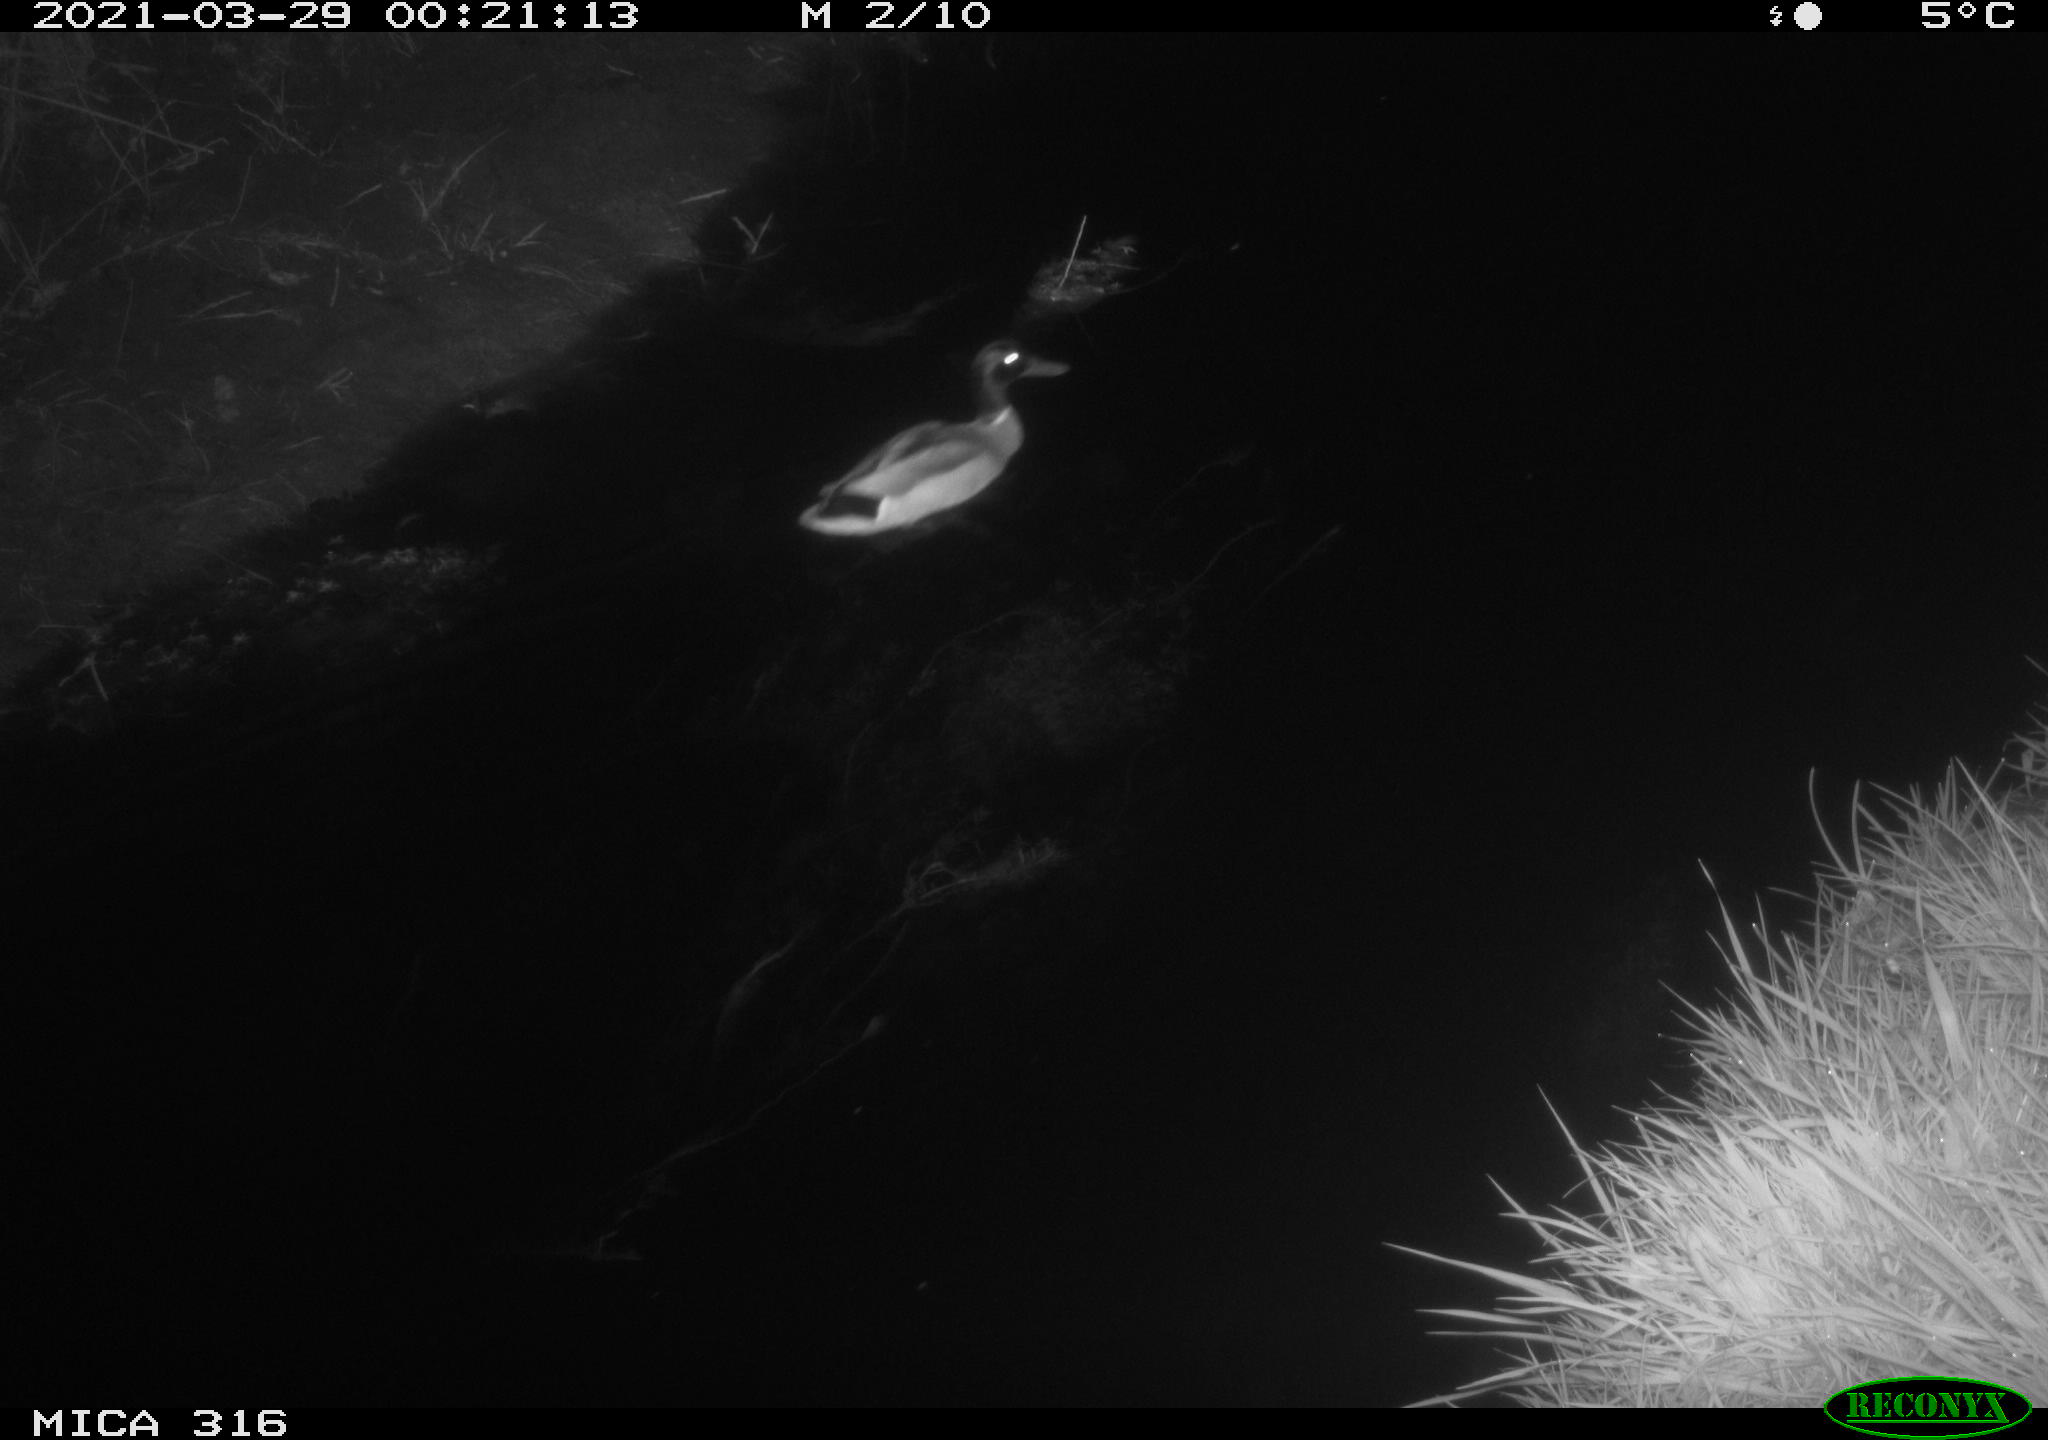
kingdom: Animalia
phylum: Chordata
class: Aves
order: Anseriformes
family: Anatidae
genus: Anas
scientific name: Anas platyrhynchos
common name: Mallard
